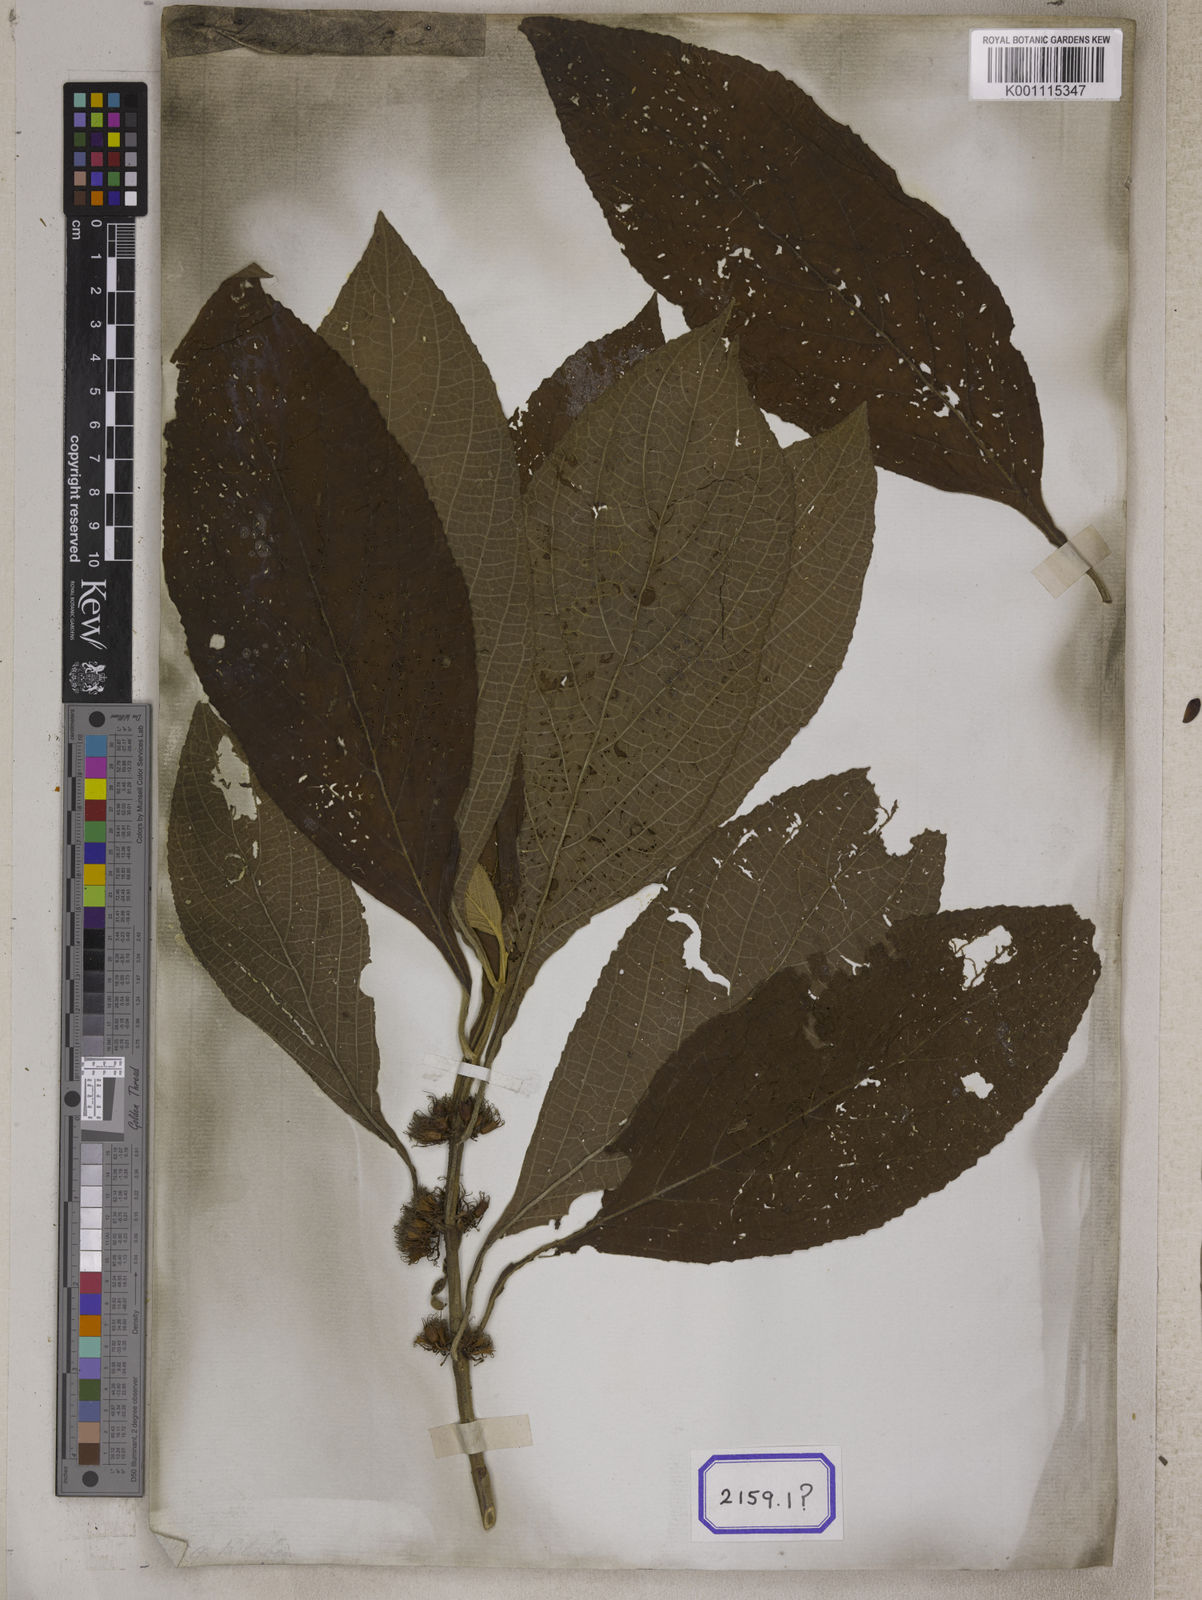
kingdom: Plantae
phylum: Tracheophyta
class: Magnoliopsida
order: Lamiales
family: Lamiaceae
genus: Gomphostemma
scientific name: Gomphostemma
